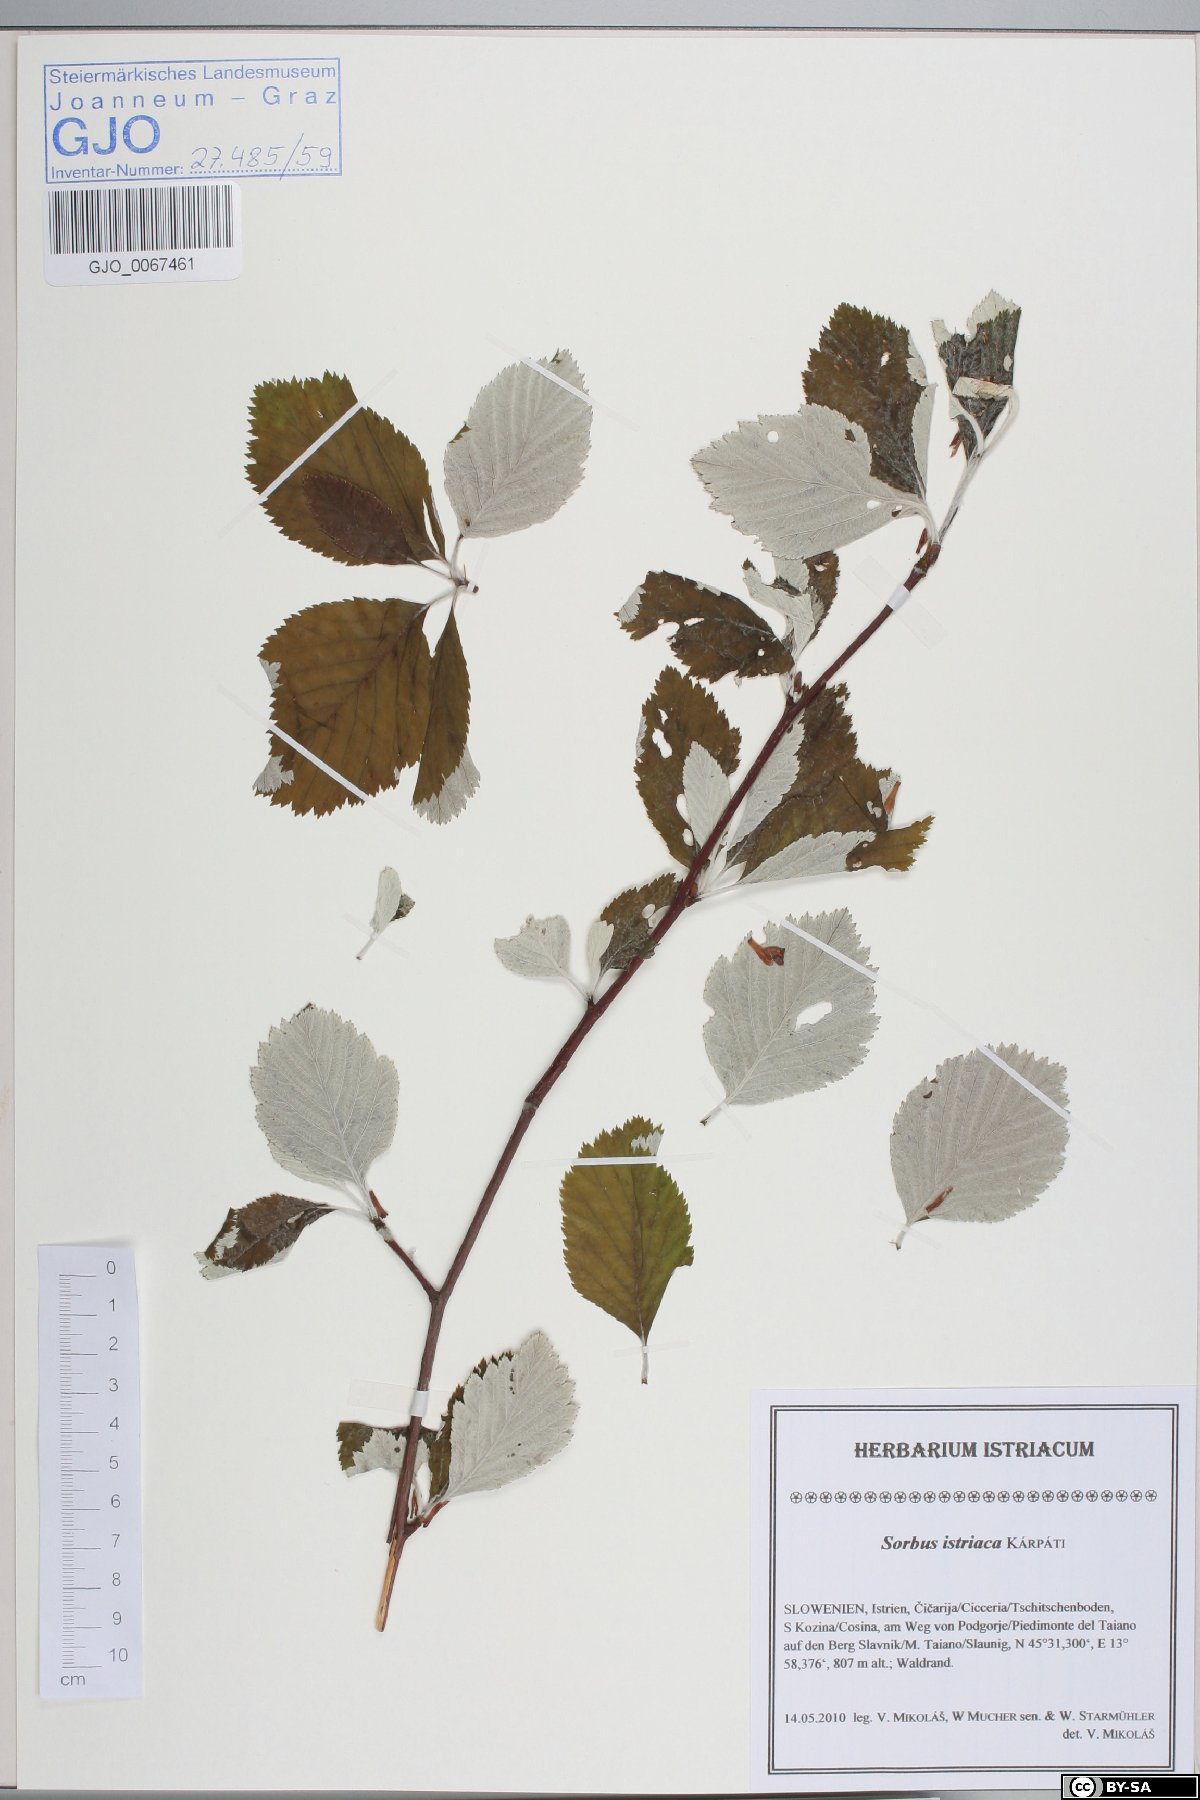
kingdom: Plantae
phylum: Tracheophyta
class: Magnoliopsida
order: Rosales
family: Rosaceae
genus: Karpatiosorbus
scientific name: Karpatiosorbus istriaca
